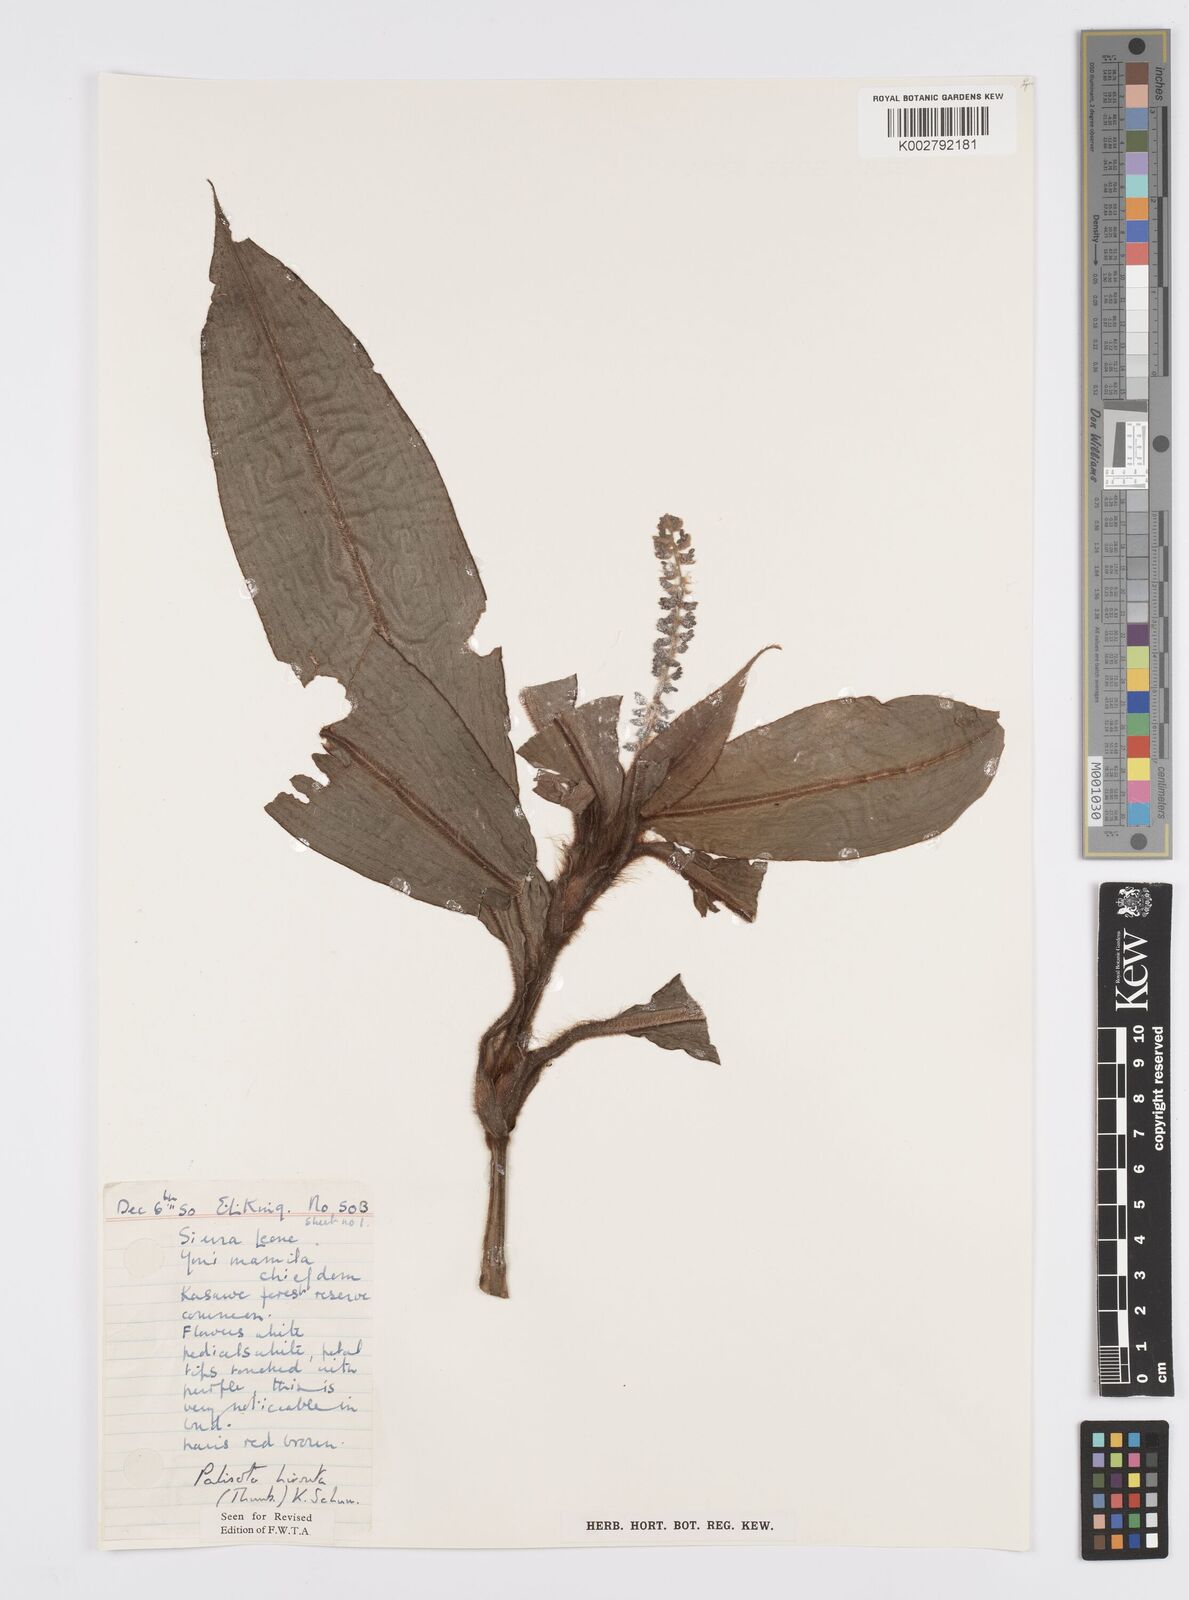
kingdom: Plantae
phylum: Tracheophyta
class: Liliopsida
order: Commelinales
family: Commelinaceae
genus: Palisota
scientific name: Palisota hirsuta
